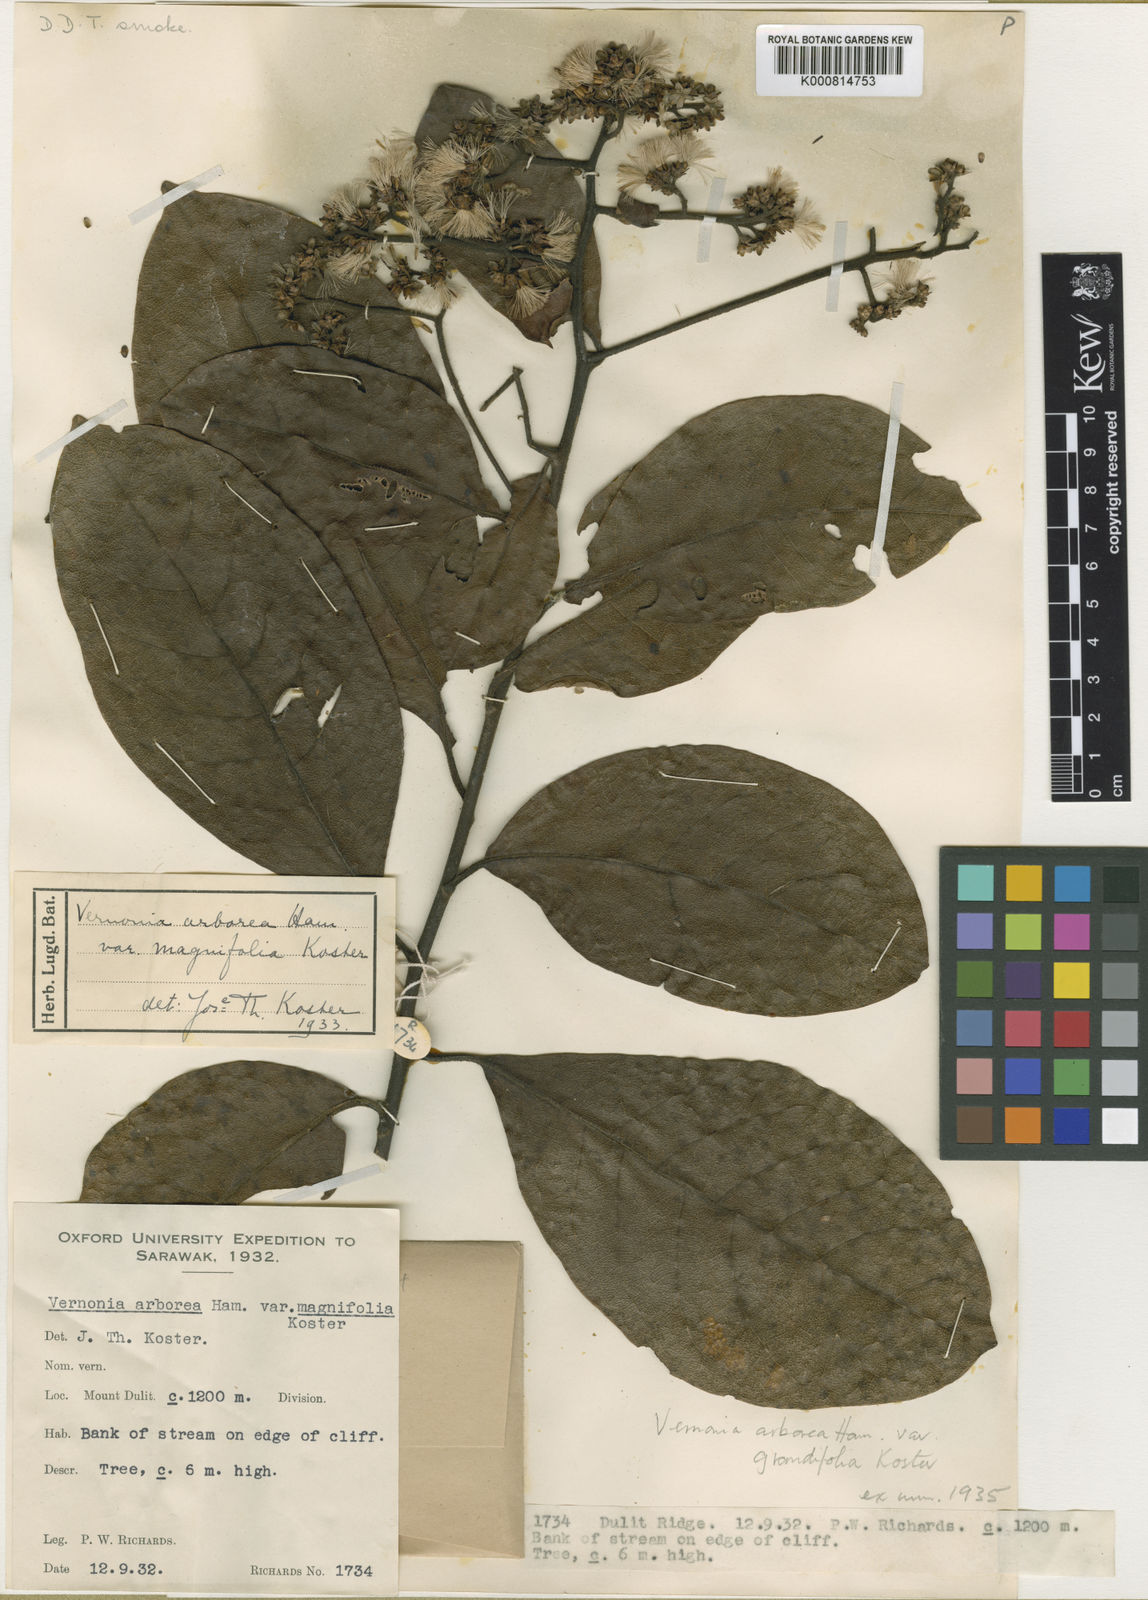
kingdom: Plantae
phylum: Tracheophyta
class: Magnoliopsida
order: Asterales
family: Asteraceae
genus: Strobocalyx
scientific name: Strobocalyx arborea
